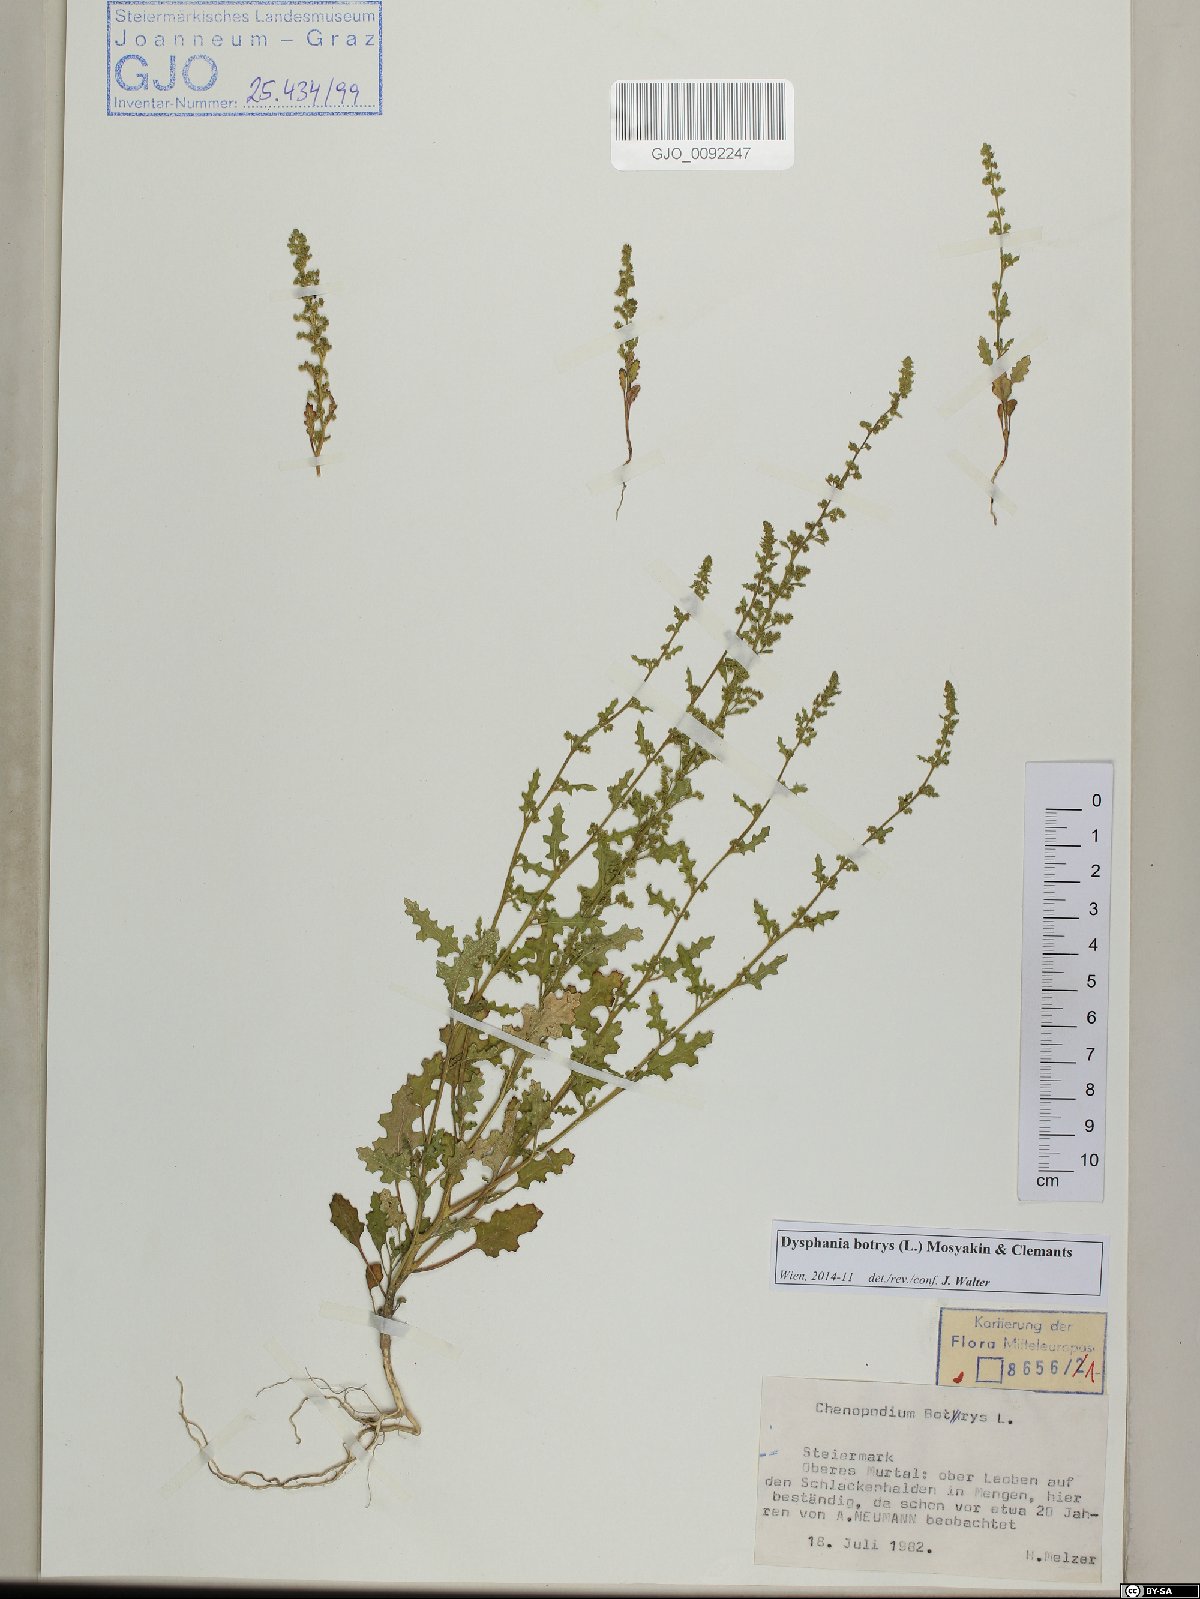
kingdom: Plantae
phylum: Tracheophyta
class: Magnoliopsida
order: Caryophyllales
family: Amaranthaceae
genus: Dysphania
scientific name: Dysphania botrys
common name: Feather-geranium
